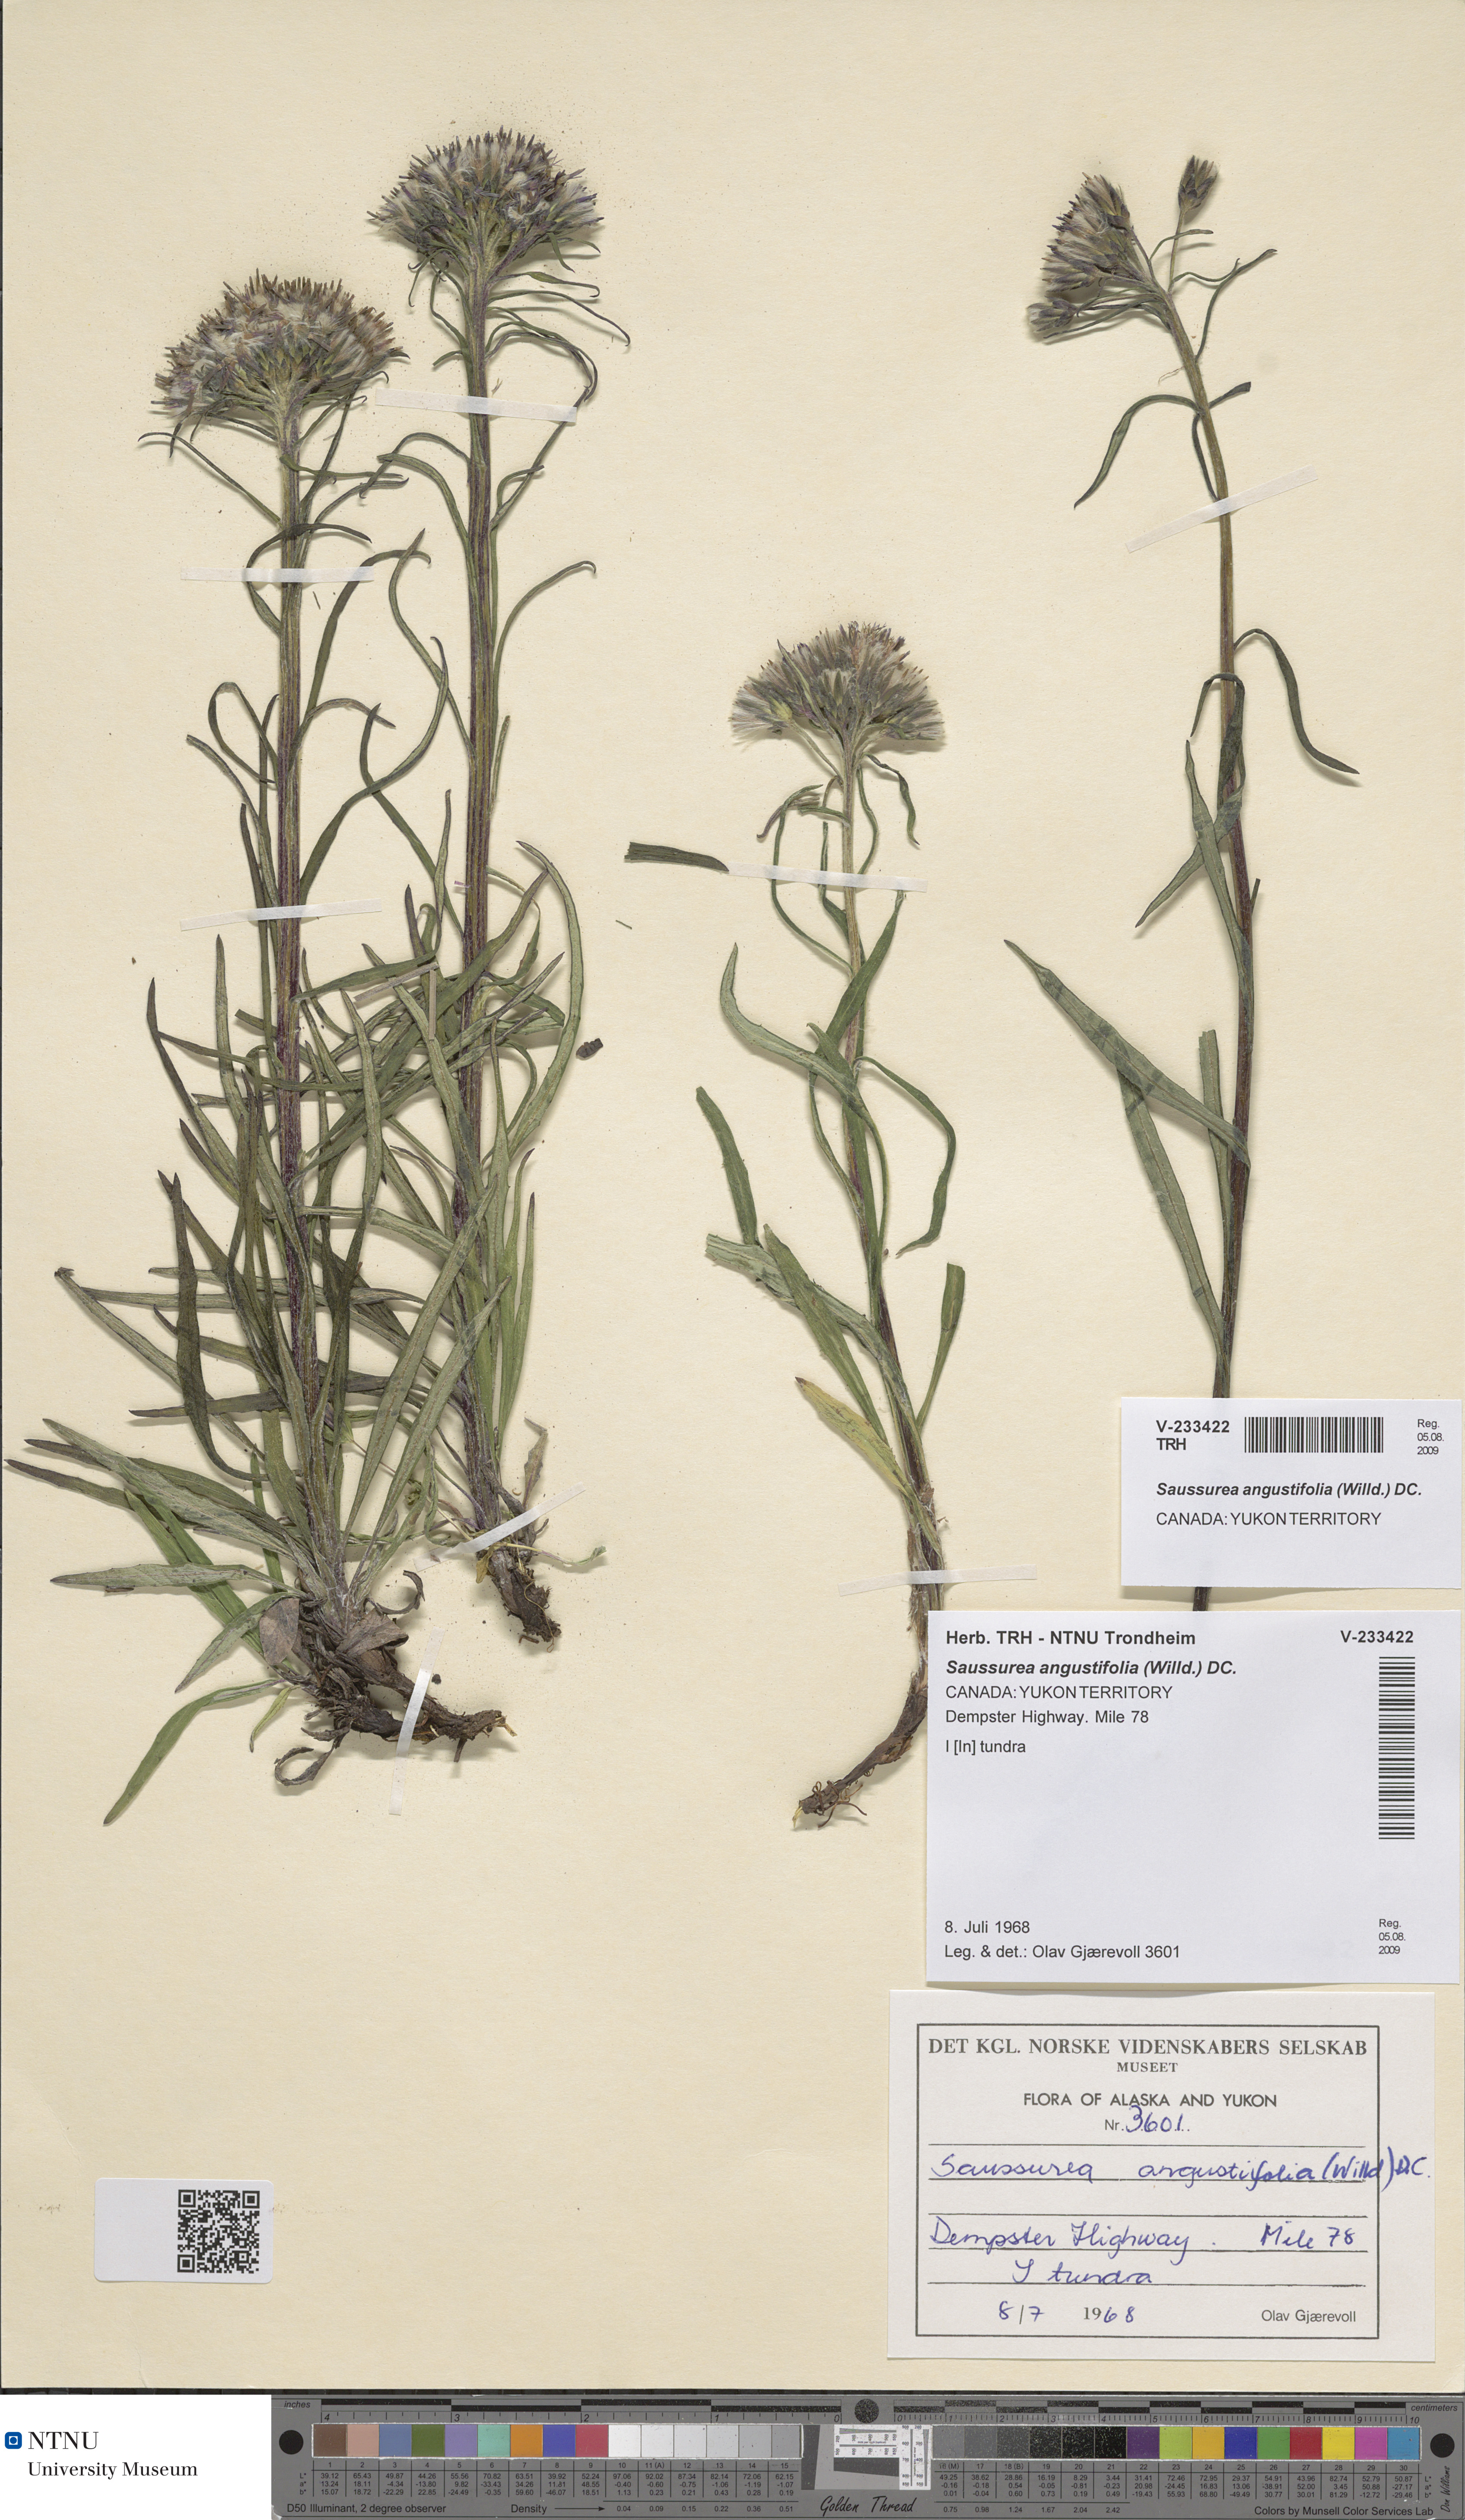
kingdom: Plantae
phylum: Tracheophyta
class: Magnoliopsida
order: Asterales
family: Asteraceae
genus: Saussurea
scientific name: Saussurea angustifolia
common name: Common saussurea
